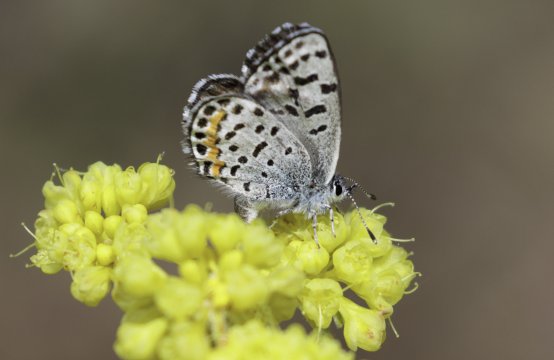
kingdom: Animalia
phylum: Arthropoda
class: Insecta
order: Lepidoptera
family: Lycaenidae
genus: Euphilotes
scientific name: Euphilotes battoides
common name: Glaucon Blue
